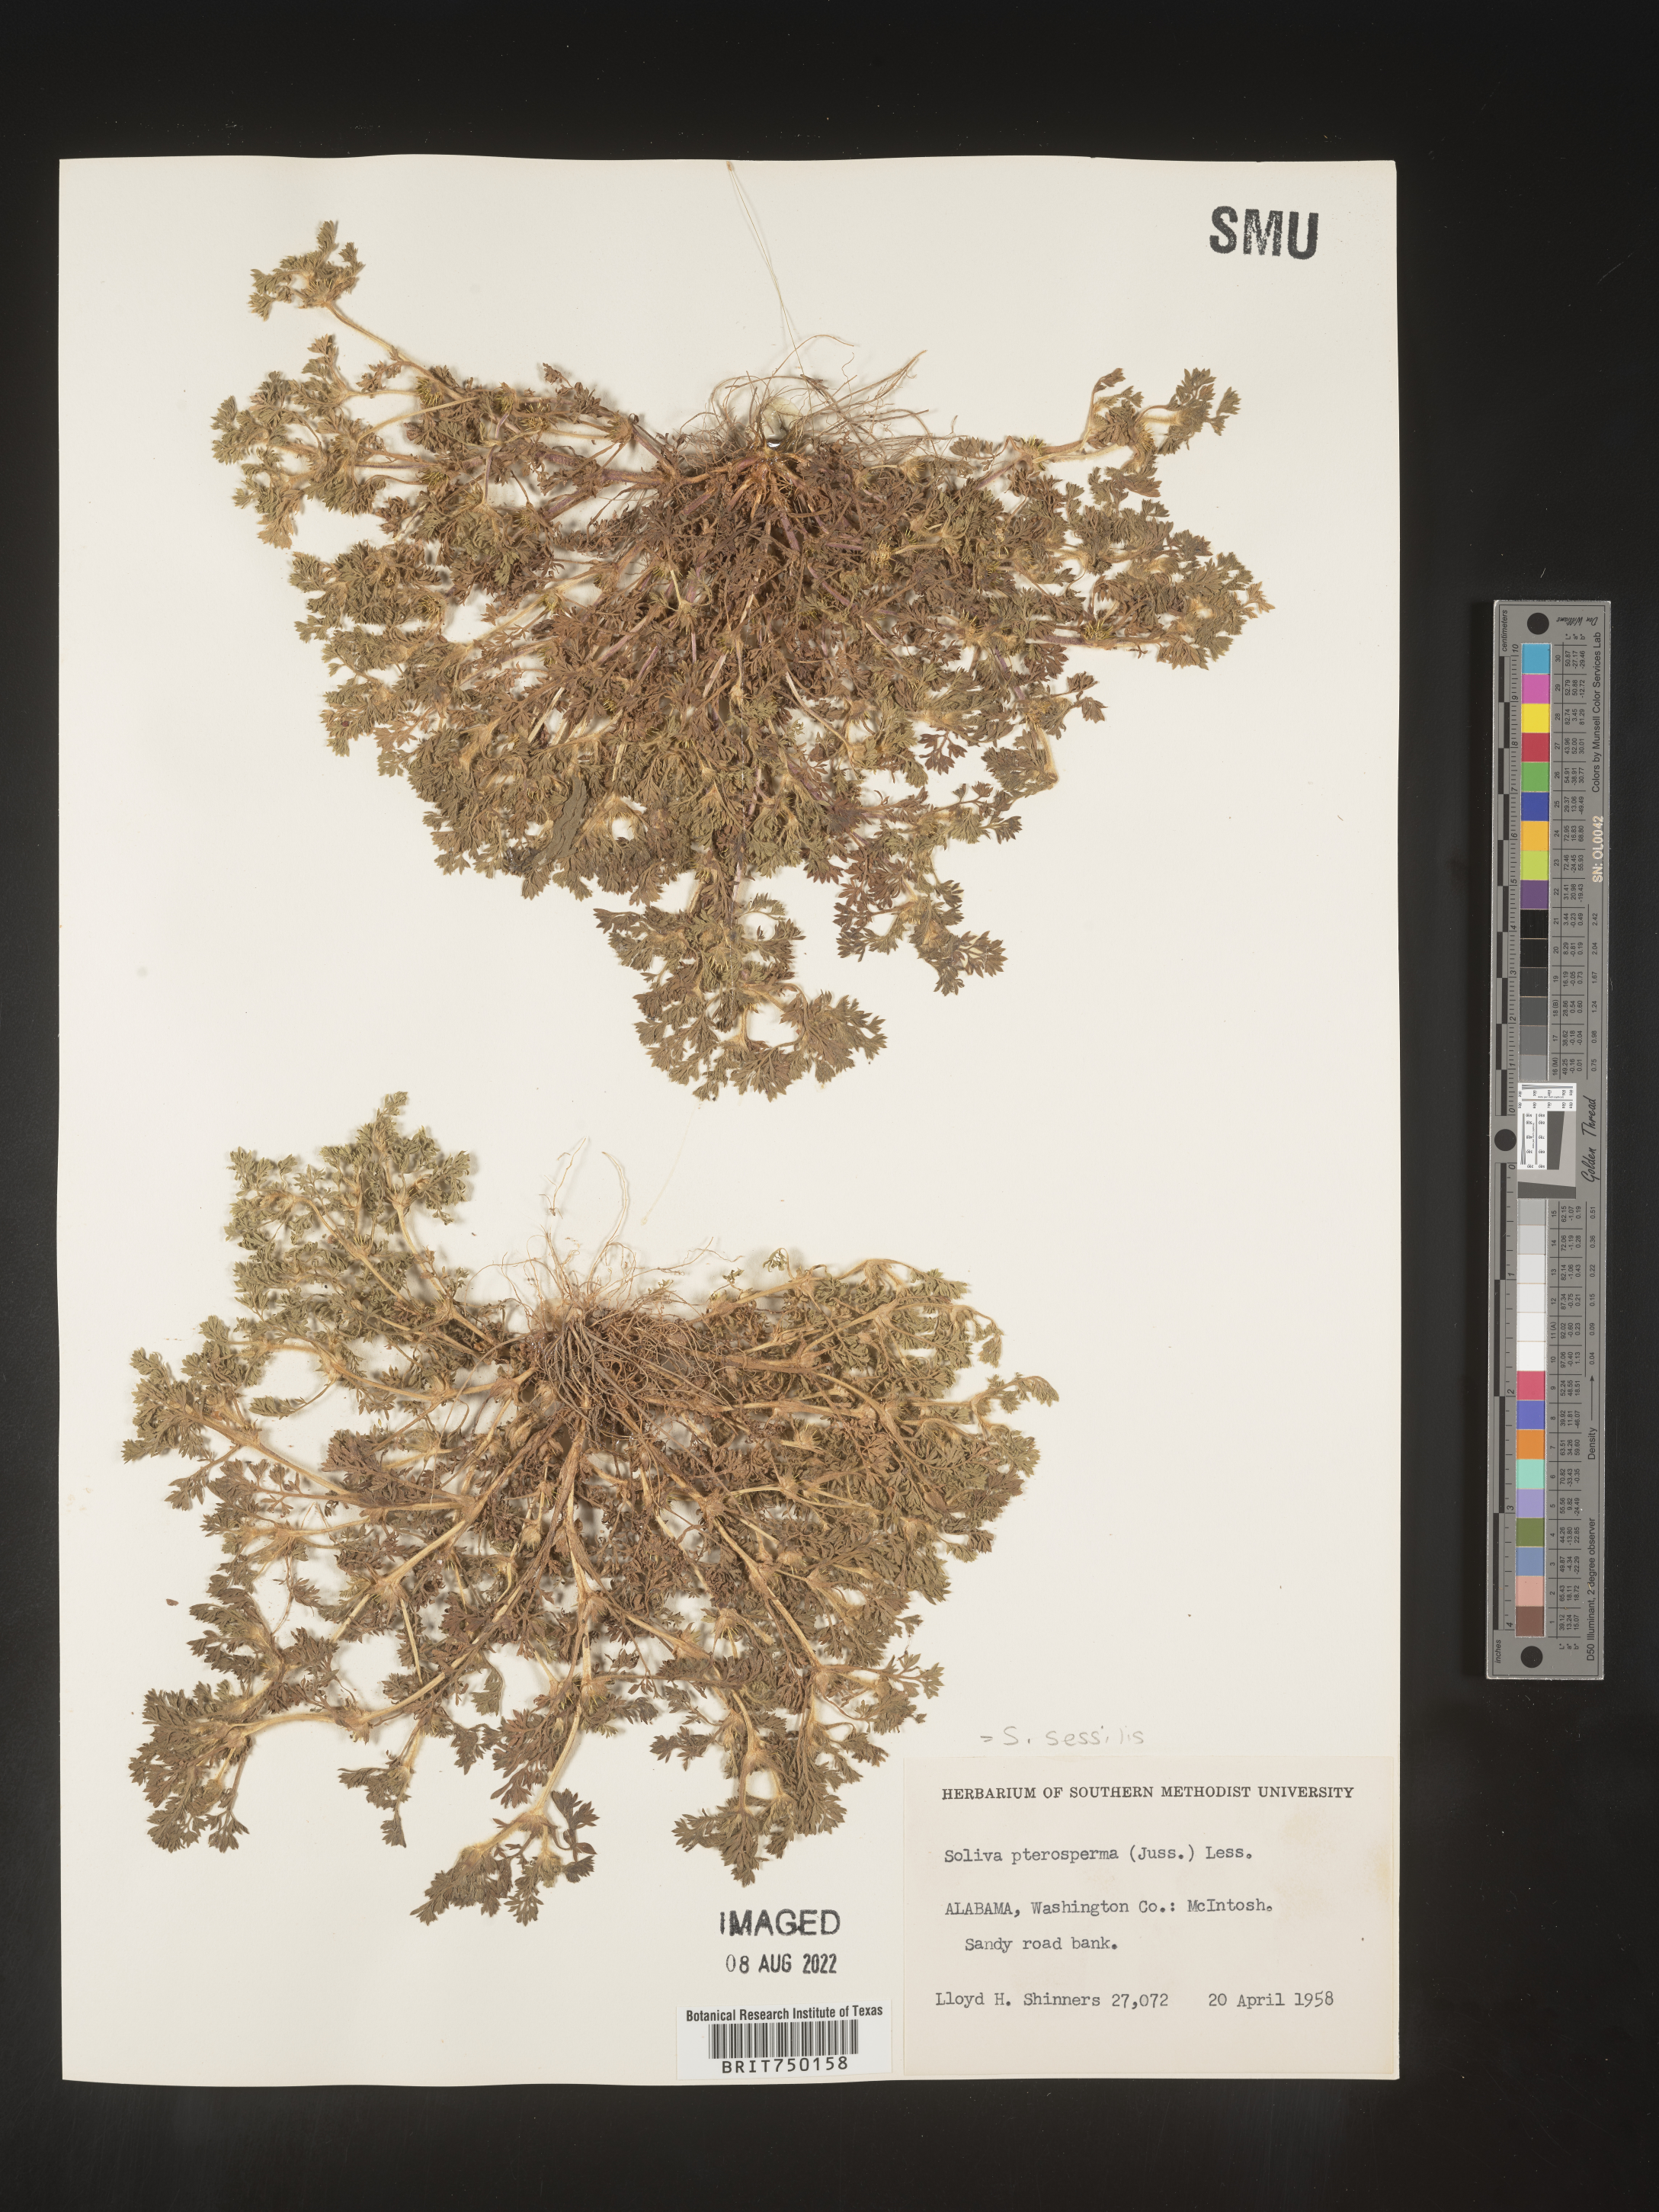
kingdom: Plantae
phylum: Tracheophyta
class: Magnoliopsida
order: Asterales
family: Asteraceae
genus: Soliva
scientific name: Soliva sessilis
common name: Field burrweed
